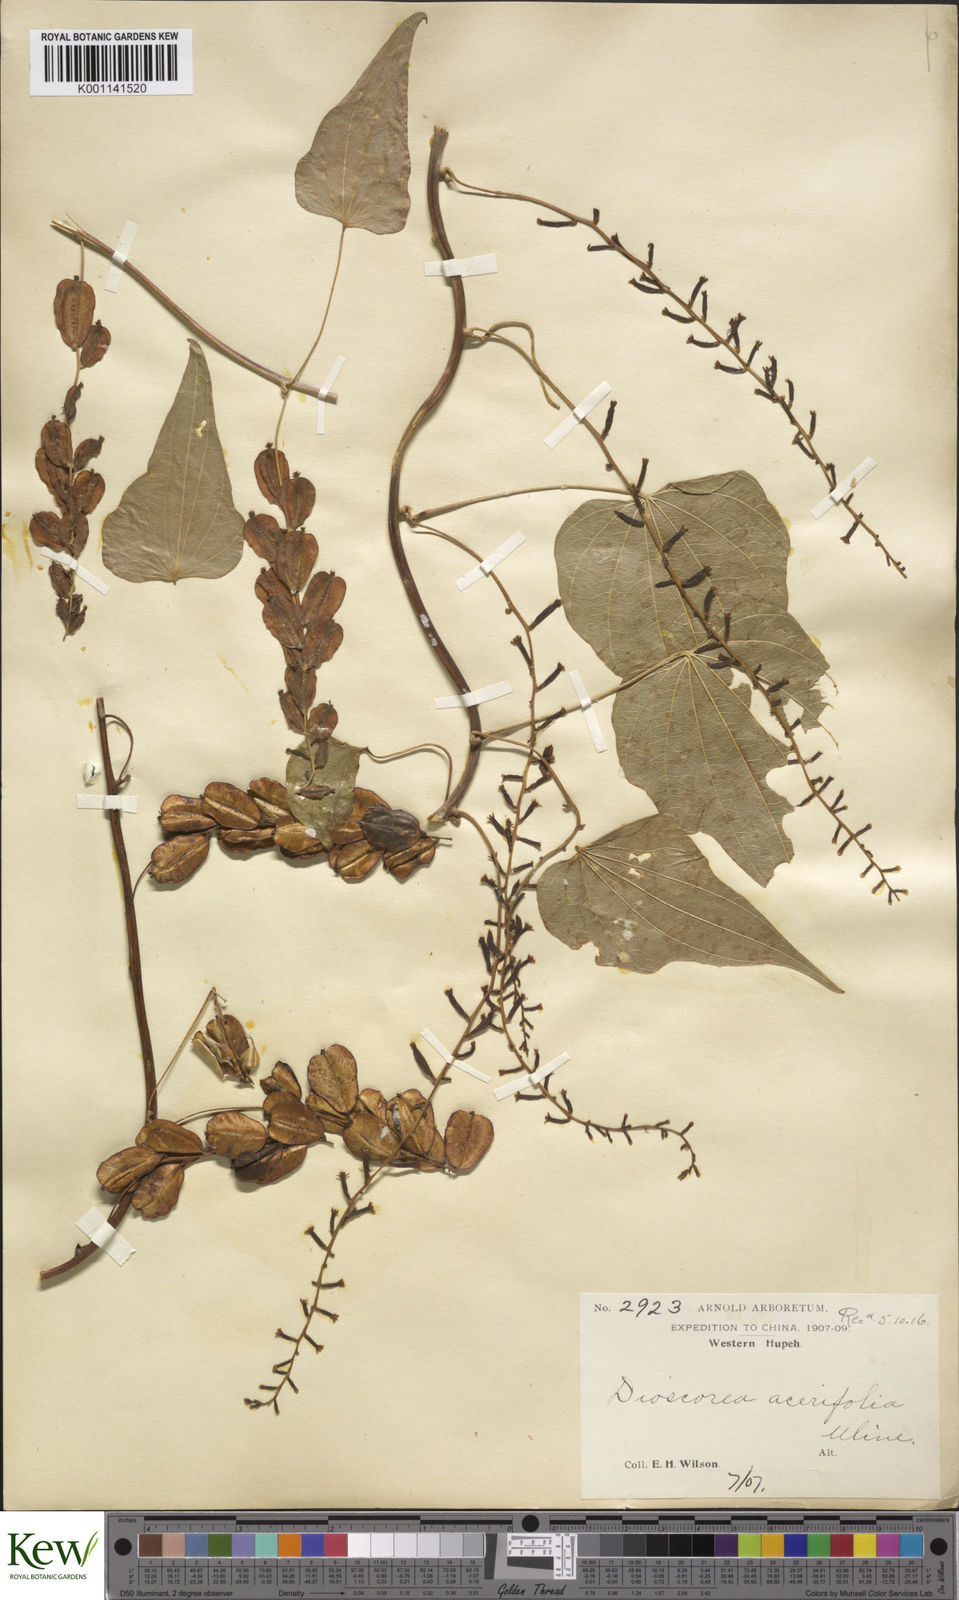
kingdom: Plantae
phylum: Tracheophyta
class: Liliopsida
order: Dioscoreales
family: Dioscoreaceae
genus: Dioscorea
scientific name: Dioscorea nipponica
